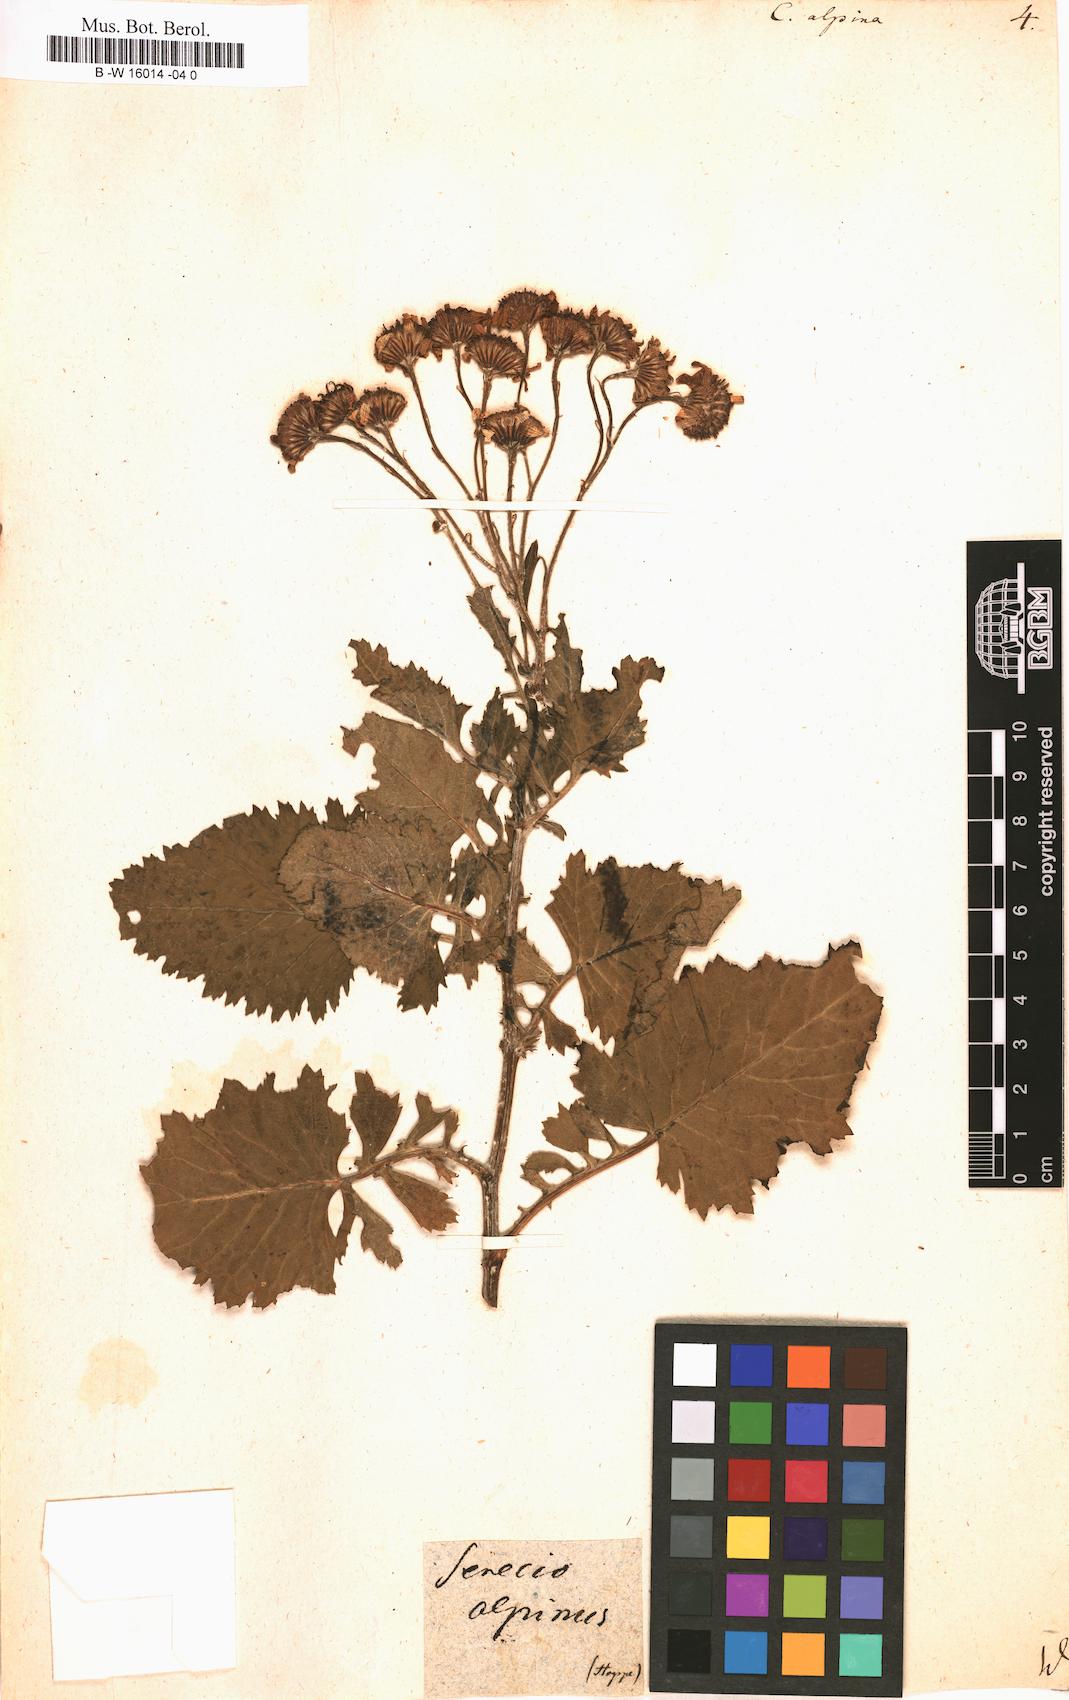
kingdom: Plantae
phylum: Tracheophyta
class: Magnoliopsida
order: Asterales
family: Asteraceae
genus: Jacobaea
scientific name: Jacobaea alpina
